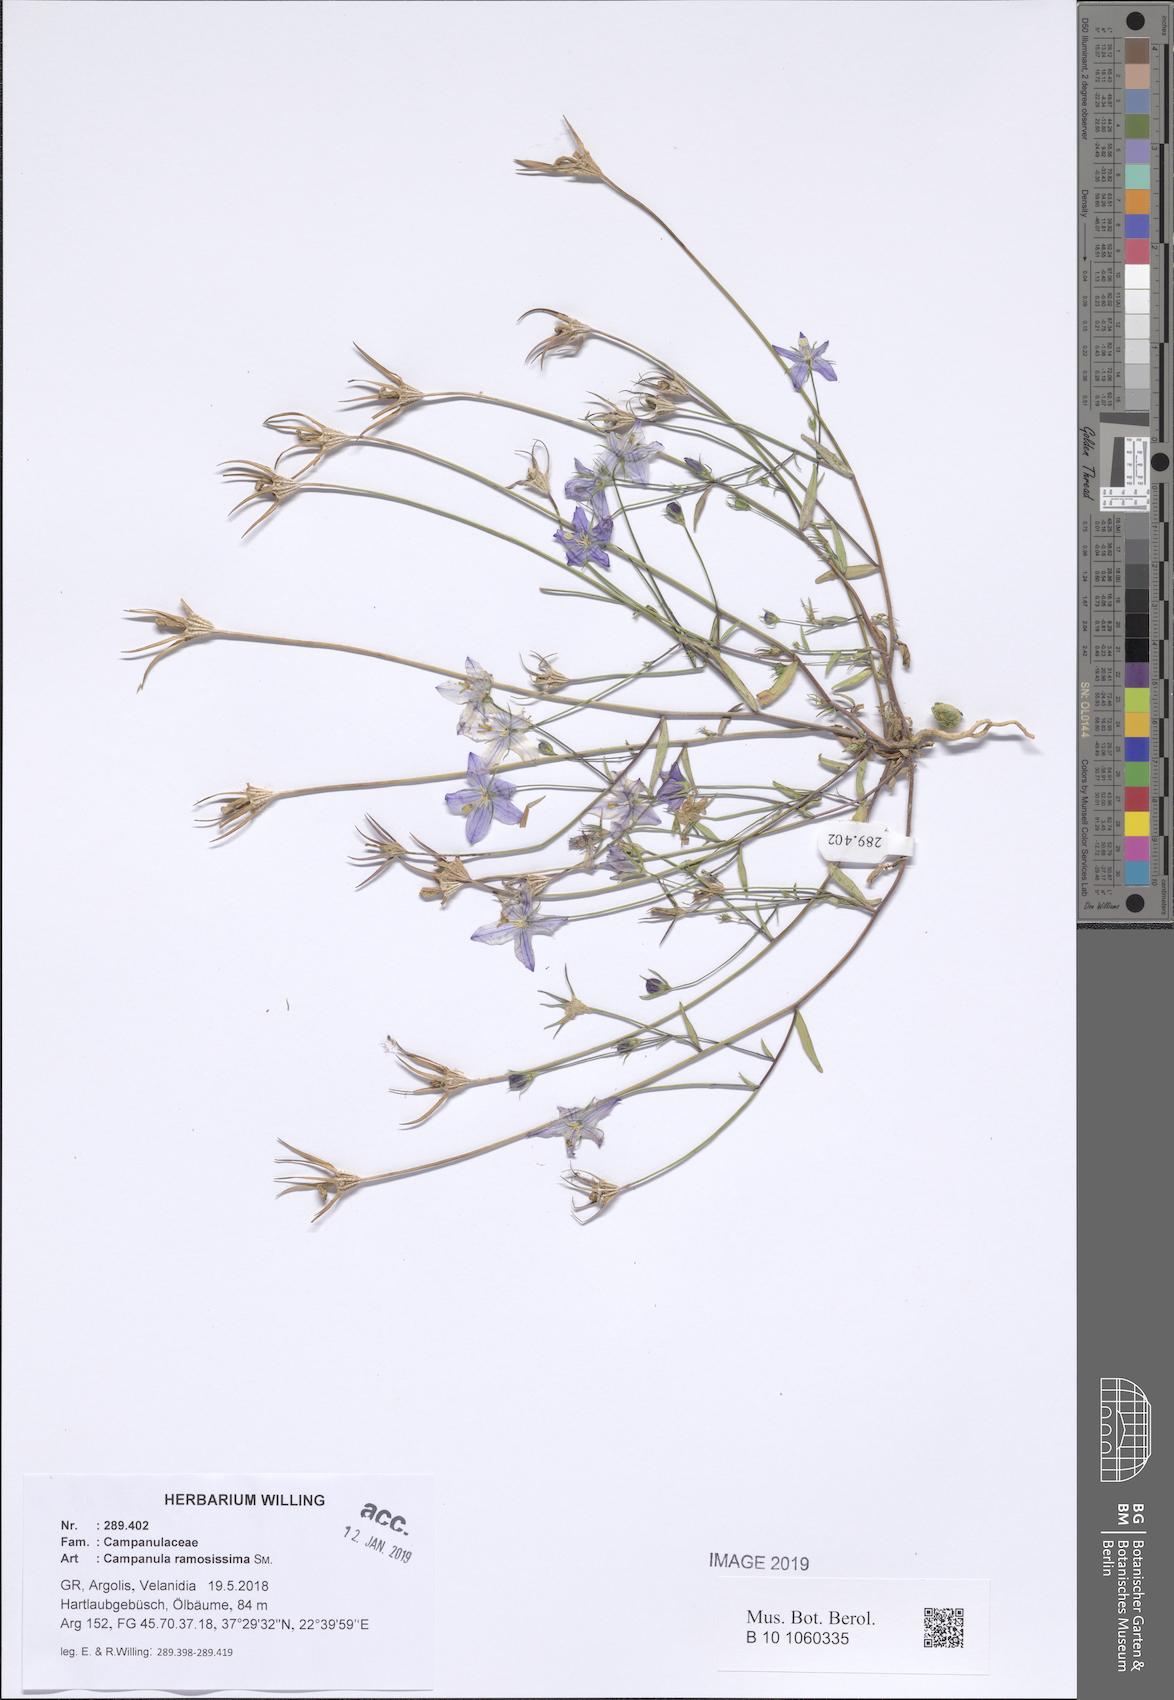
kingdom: Plantae
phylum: Tracheophyta
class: Magnoliopsida
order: Asterales
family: Campanulaceae
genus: Campanula
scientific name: Campanula ramosissima
